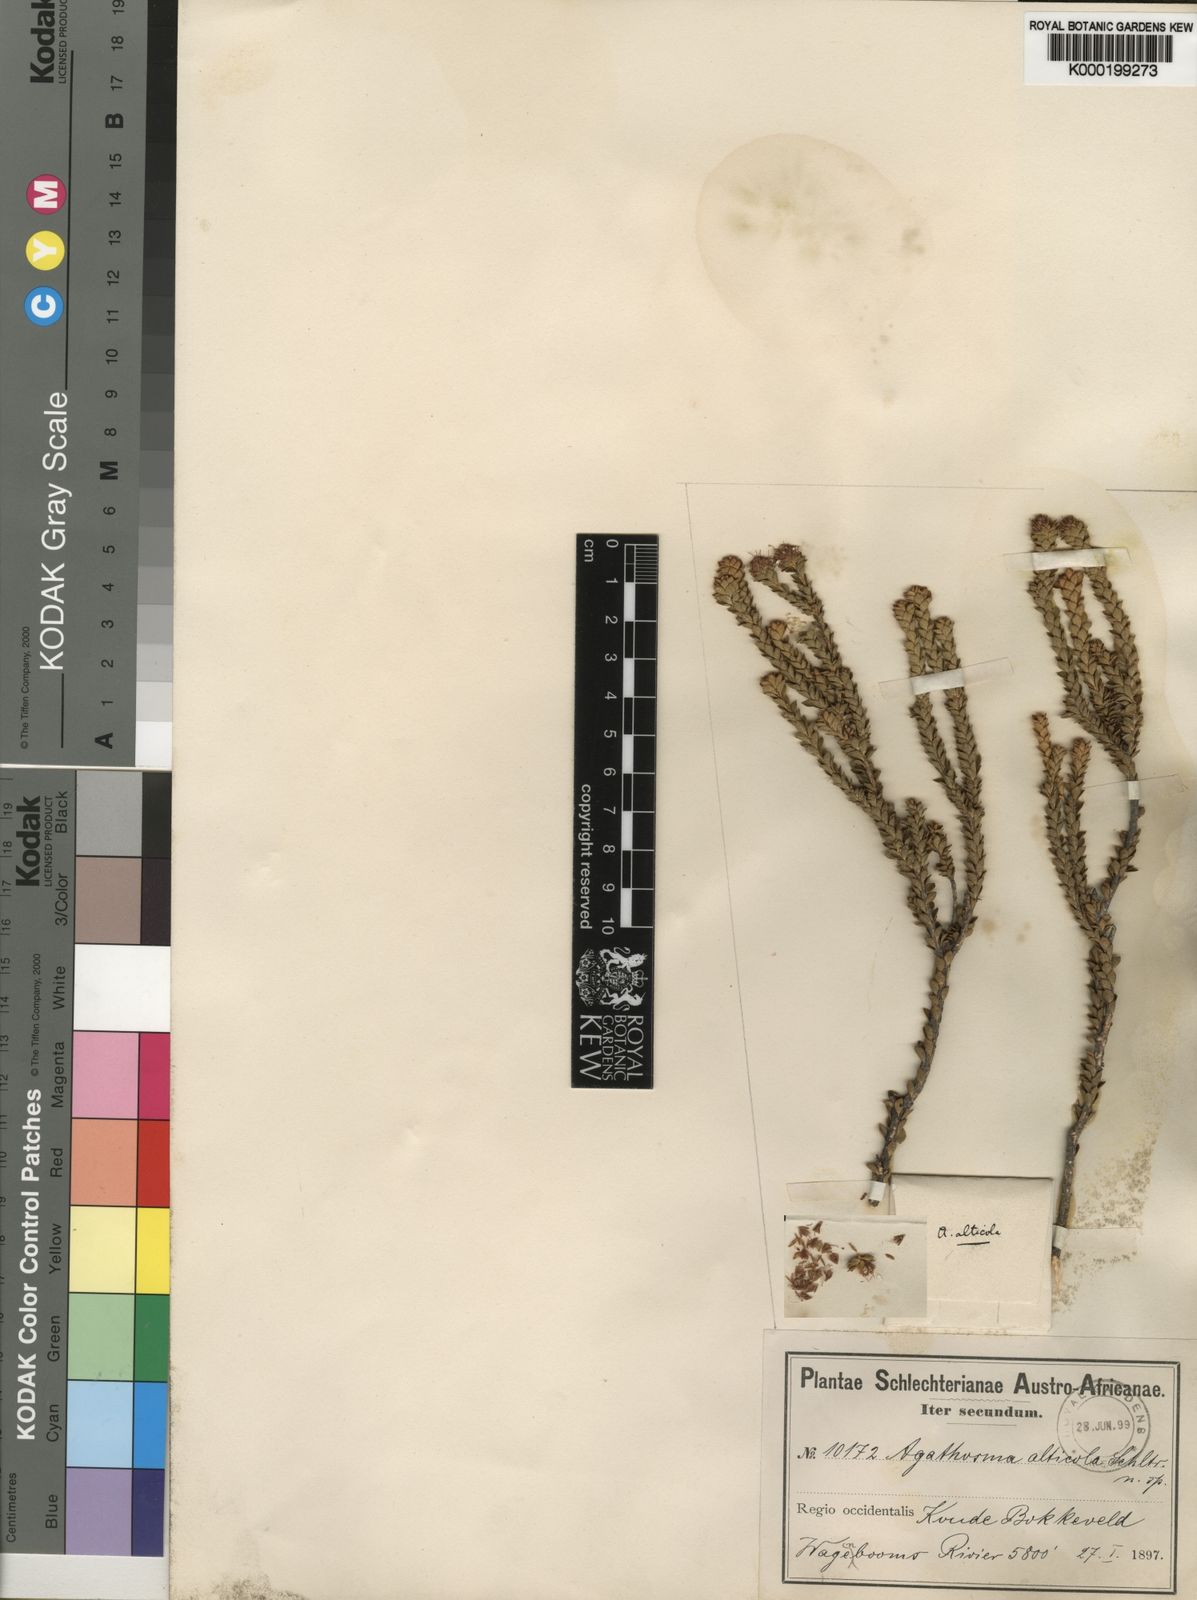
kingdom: Plantae
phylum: Tracheophyta
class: Magnoliopsida
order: Sapindales
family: Rutaceae
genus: Agathosma
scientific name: Agathosma alticola
